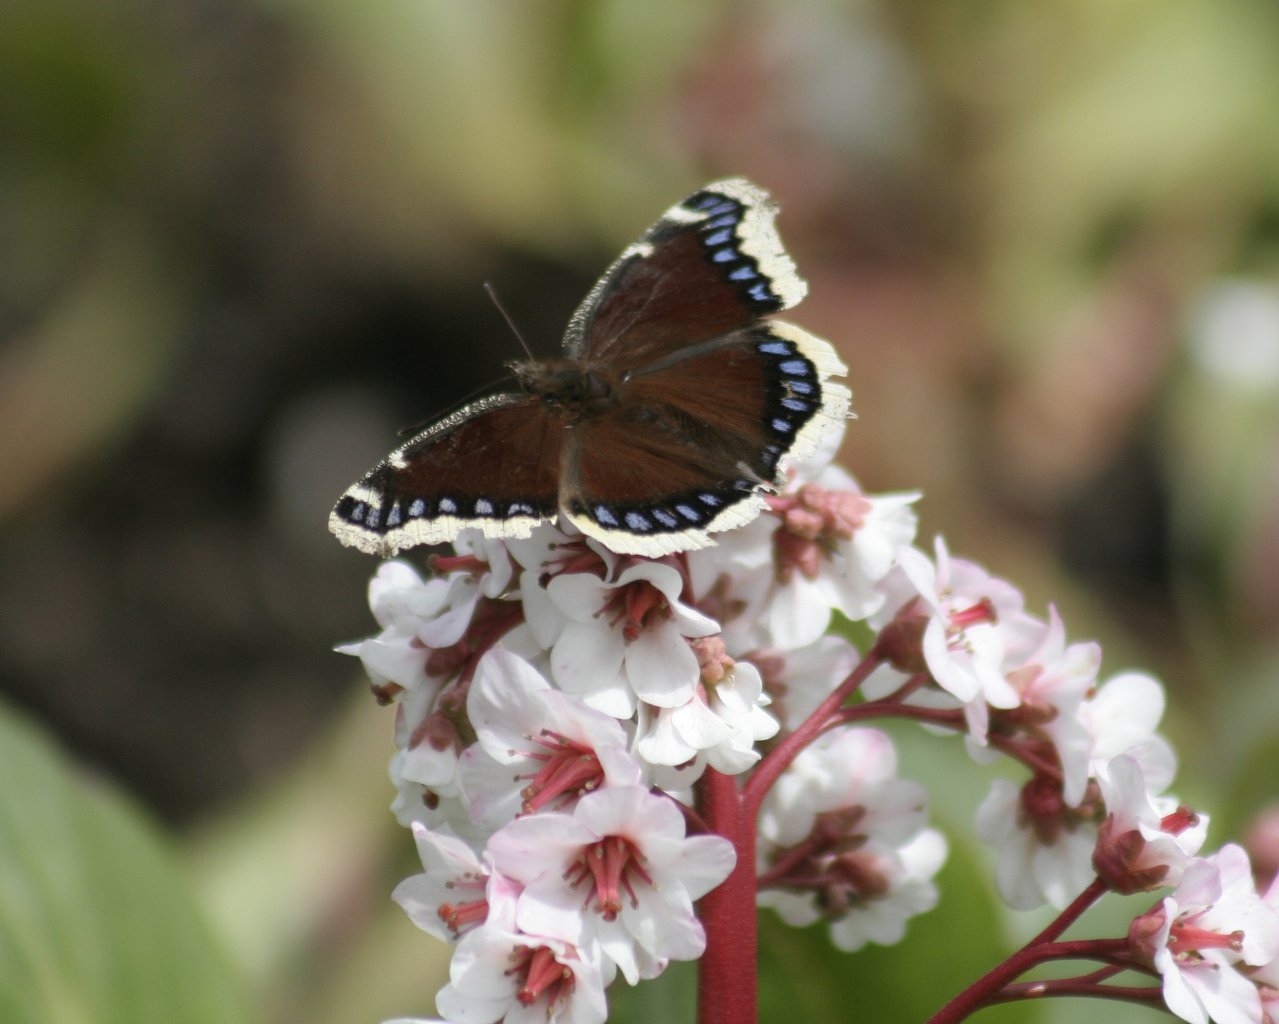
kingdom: Animalia
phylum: Arthropoda
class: Insecta
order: Lepidoptera
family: Nymphalidae
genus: Nymphalis
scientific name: Nymphalis antiopa
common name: Mourning Cloak
